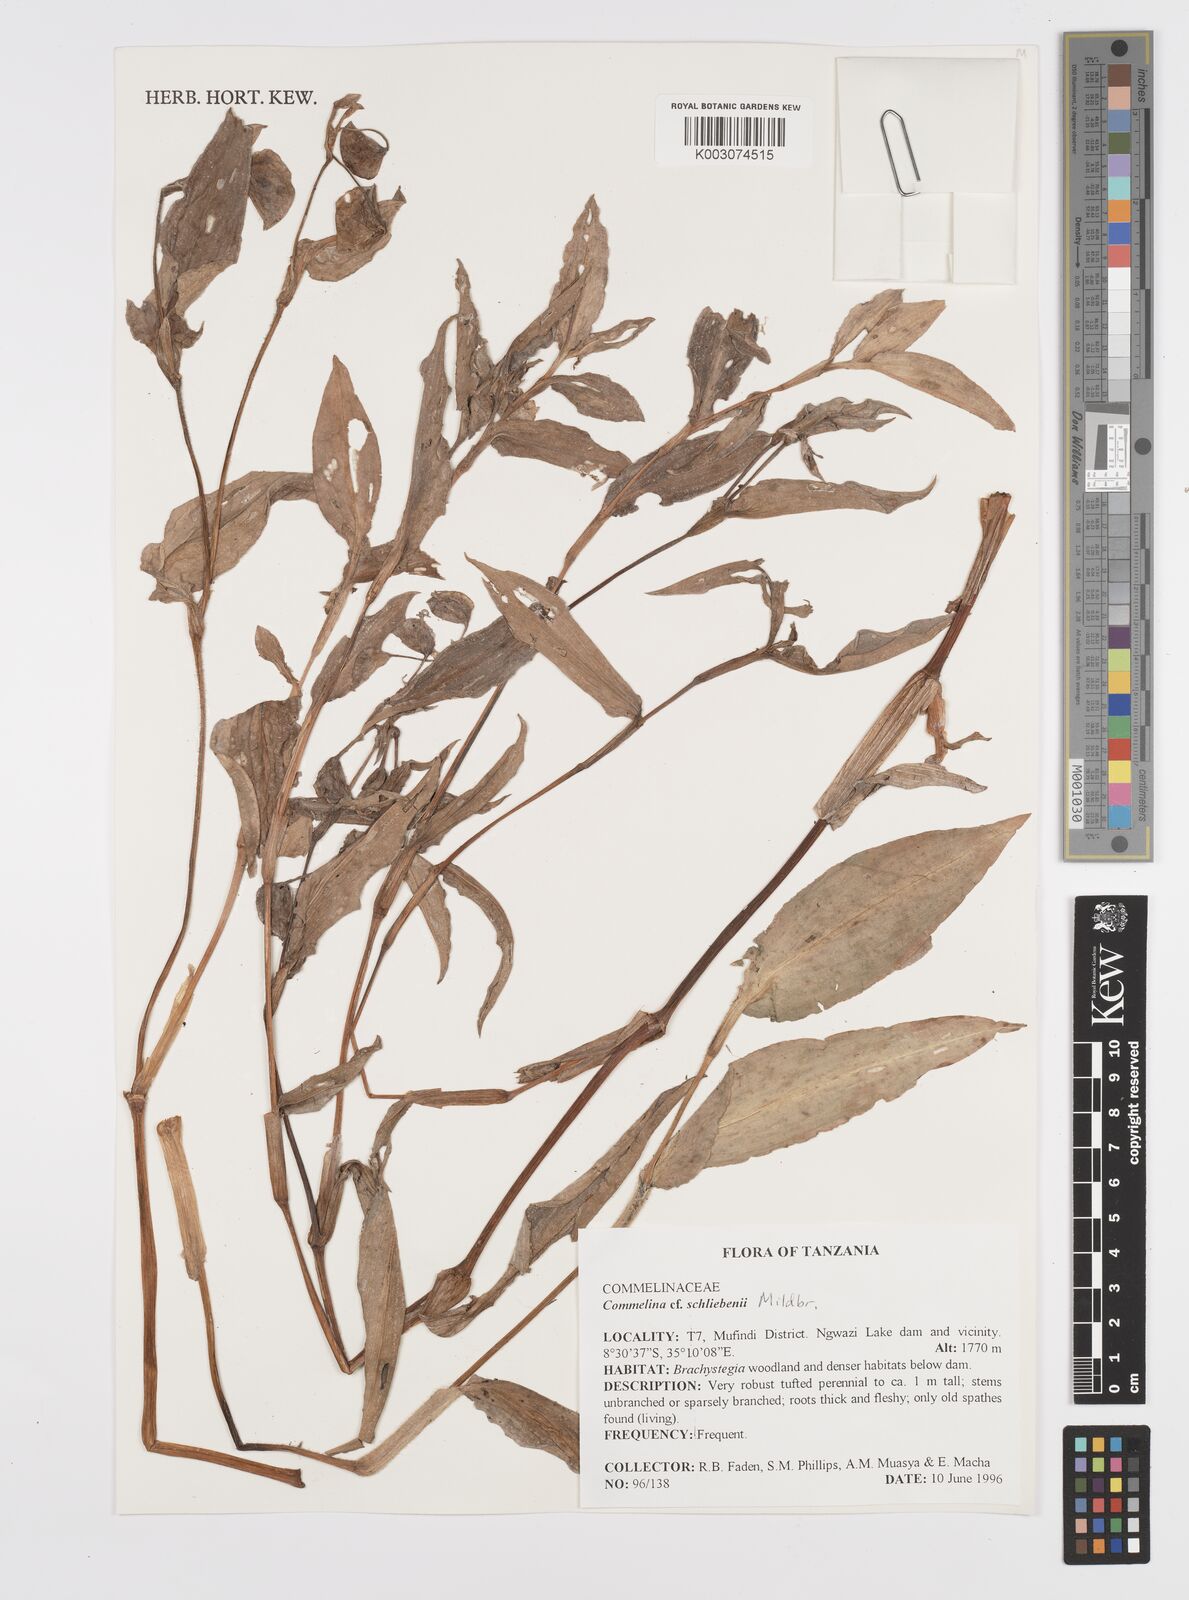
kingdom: Plantae
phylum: Tracheophyta
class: Liliopsida
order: Commelinales
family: Commelinaceae
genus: Commelina
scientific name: Commelina schliebenii
